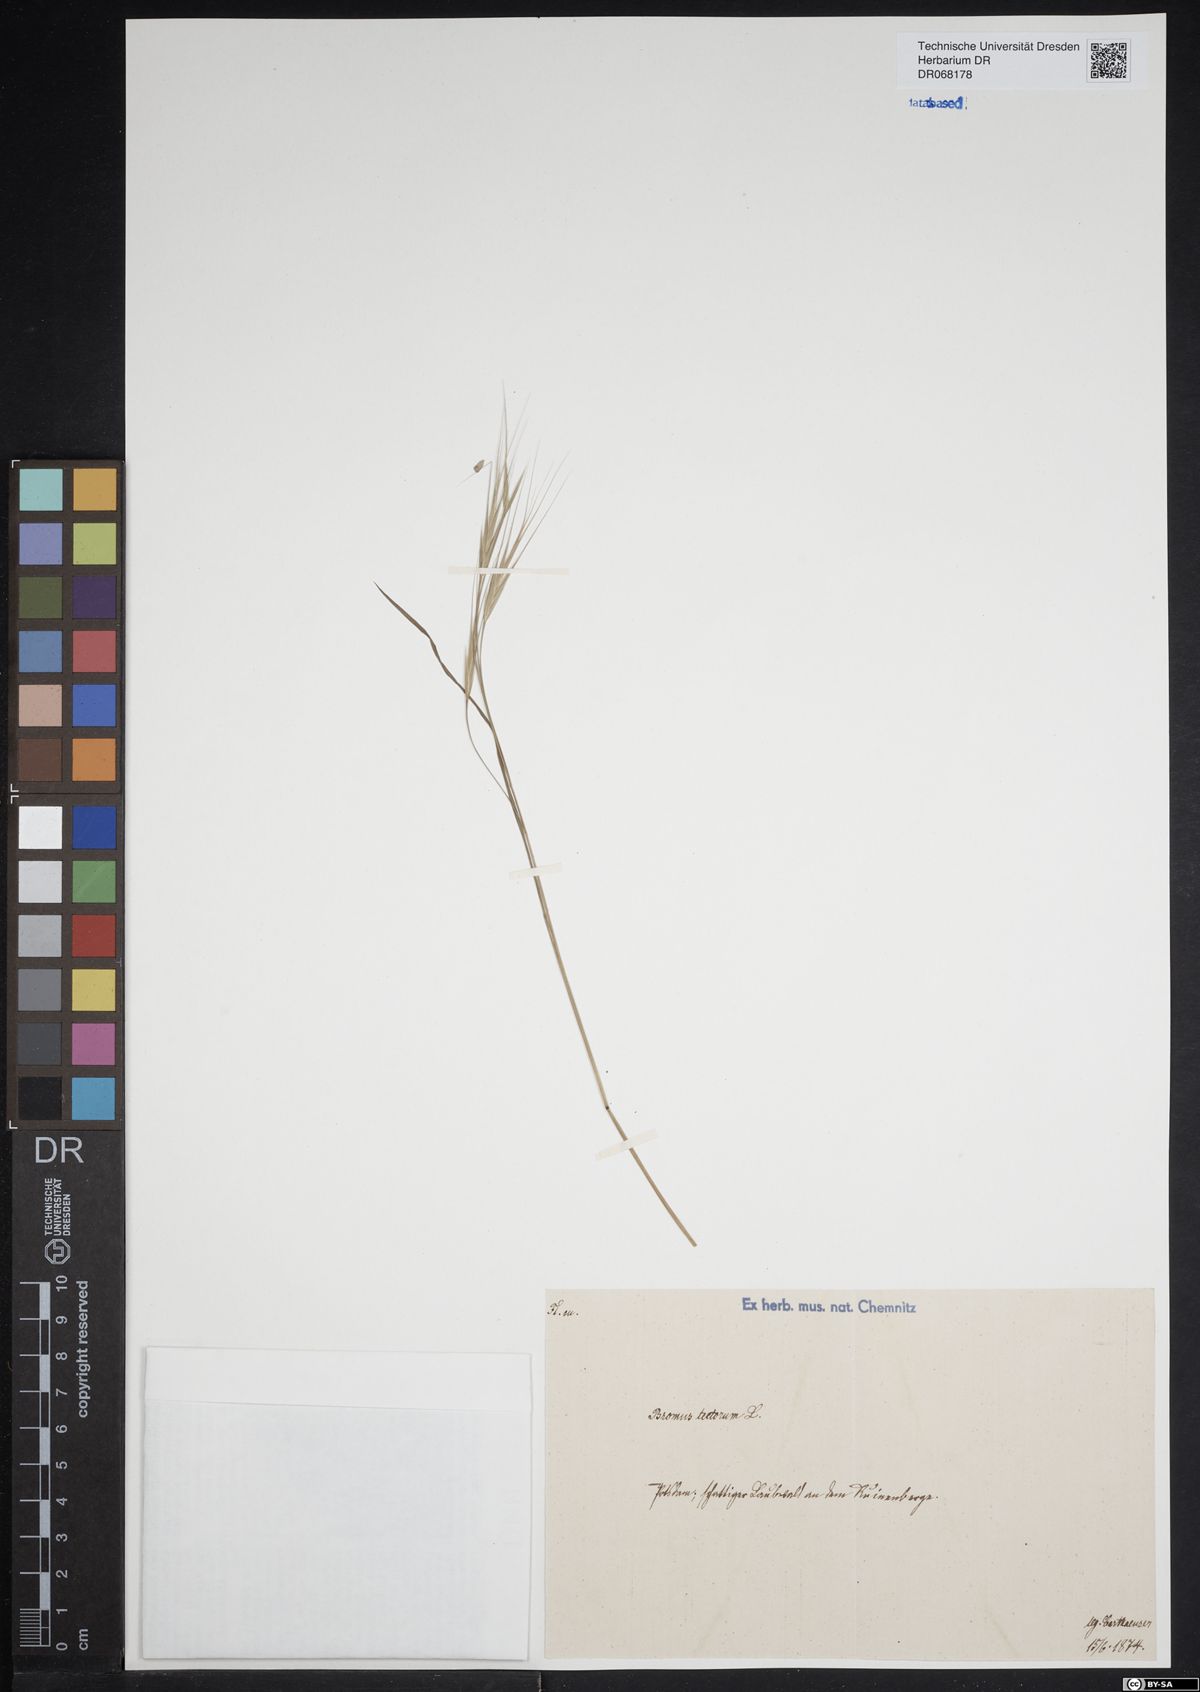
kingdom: Plantae
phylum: Tracheophyta
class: Liliopsida
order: Poales
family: Poaceae
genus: Bromus
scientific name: Bromus tectorum
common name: Cheatgrass
